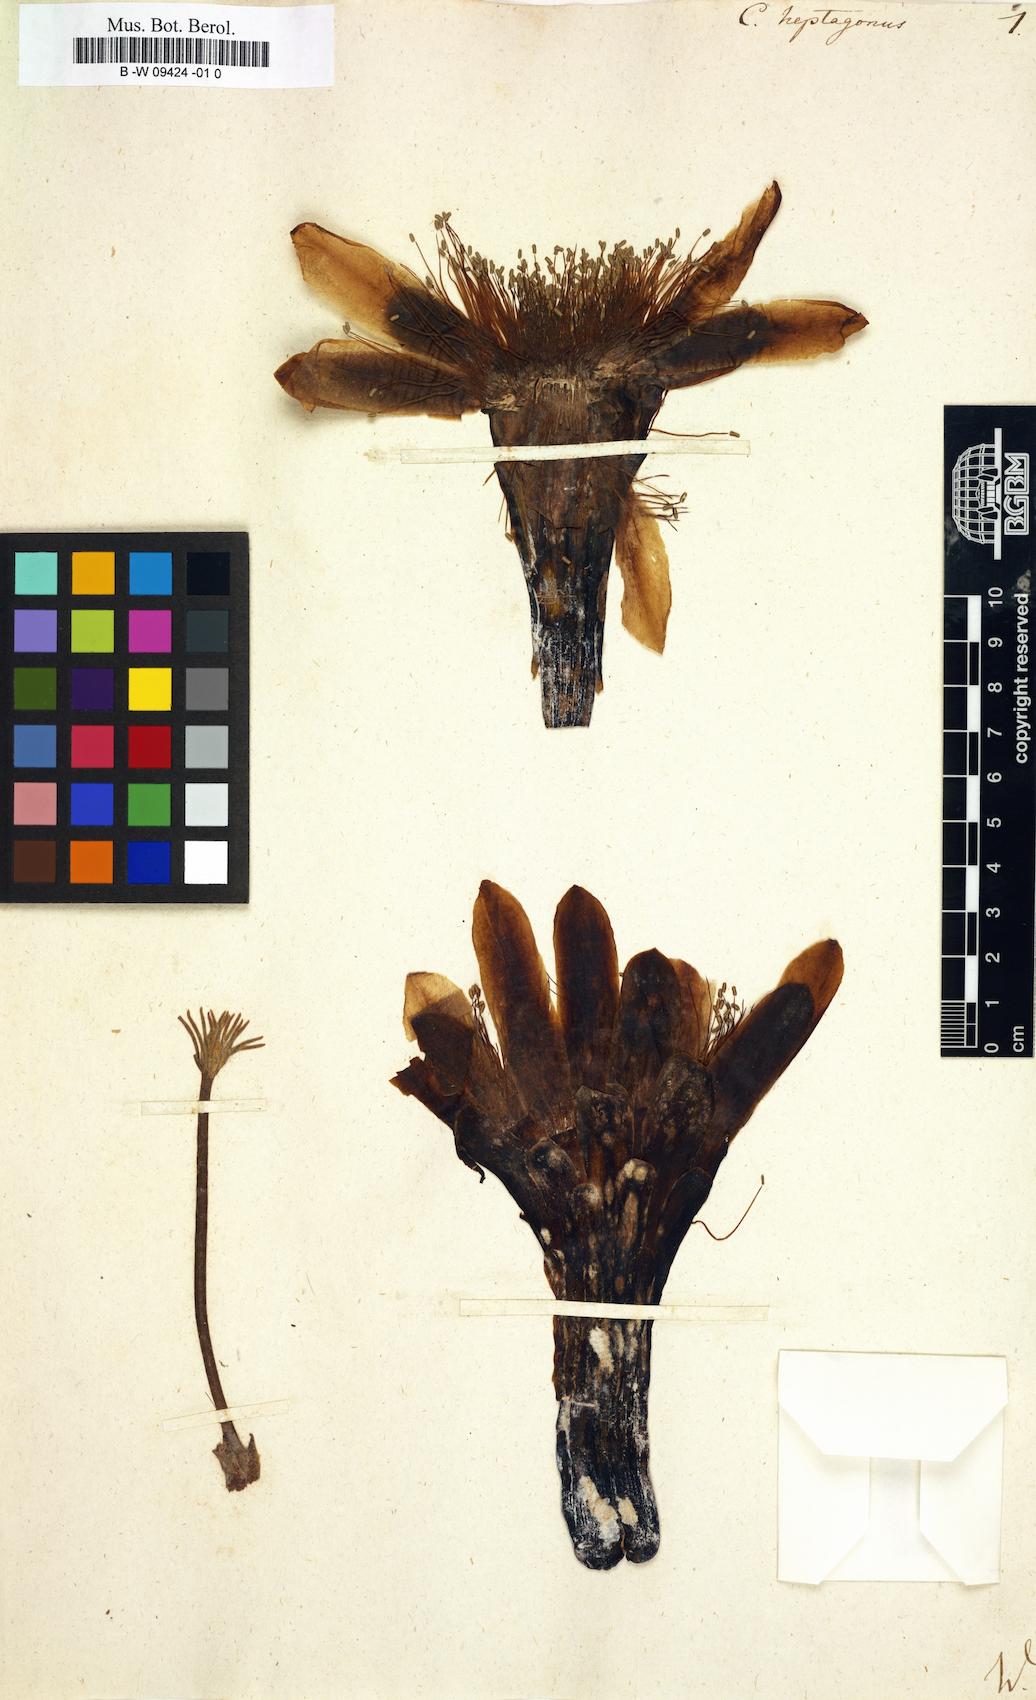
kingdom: Plantae
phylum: Tracheophyta
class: Magnoliopsida
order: Caryophyllales
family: Cactaceae
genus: Stenocereus
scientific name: Stenocereus heptagonus
